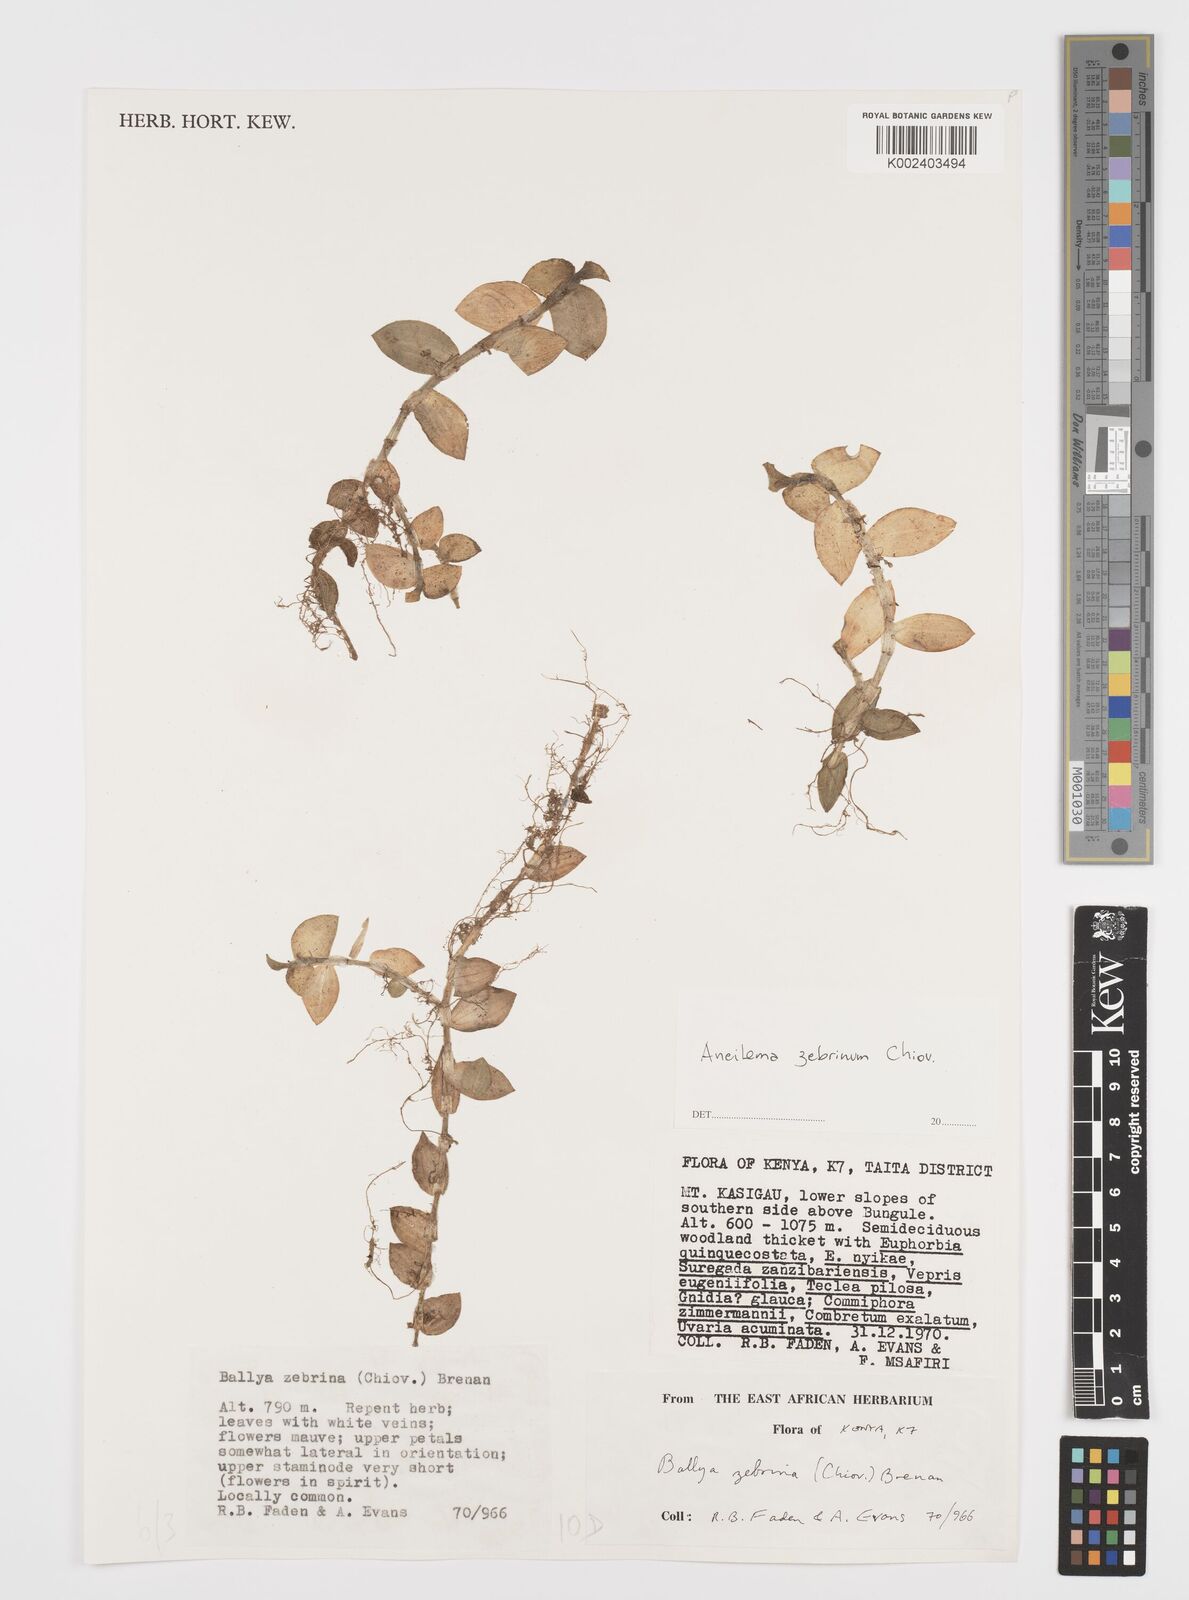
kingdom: Plantae
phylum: Tracheophyta
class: Liliopsida
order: Commelinales
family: Commelinaceae
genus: Aneilema
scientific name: Aneilema zebrinum
